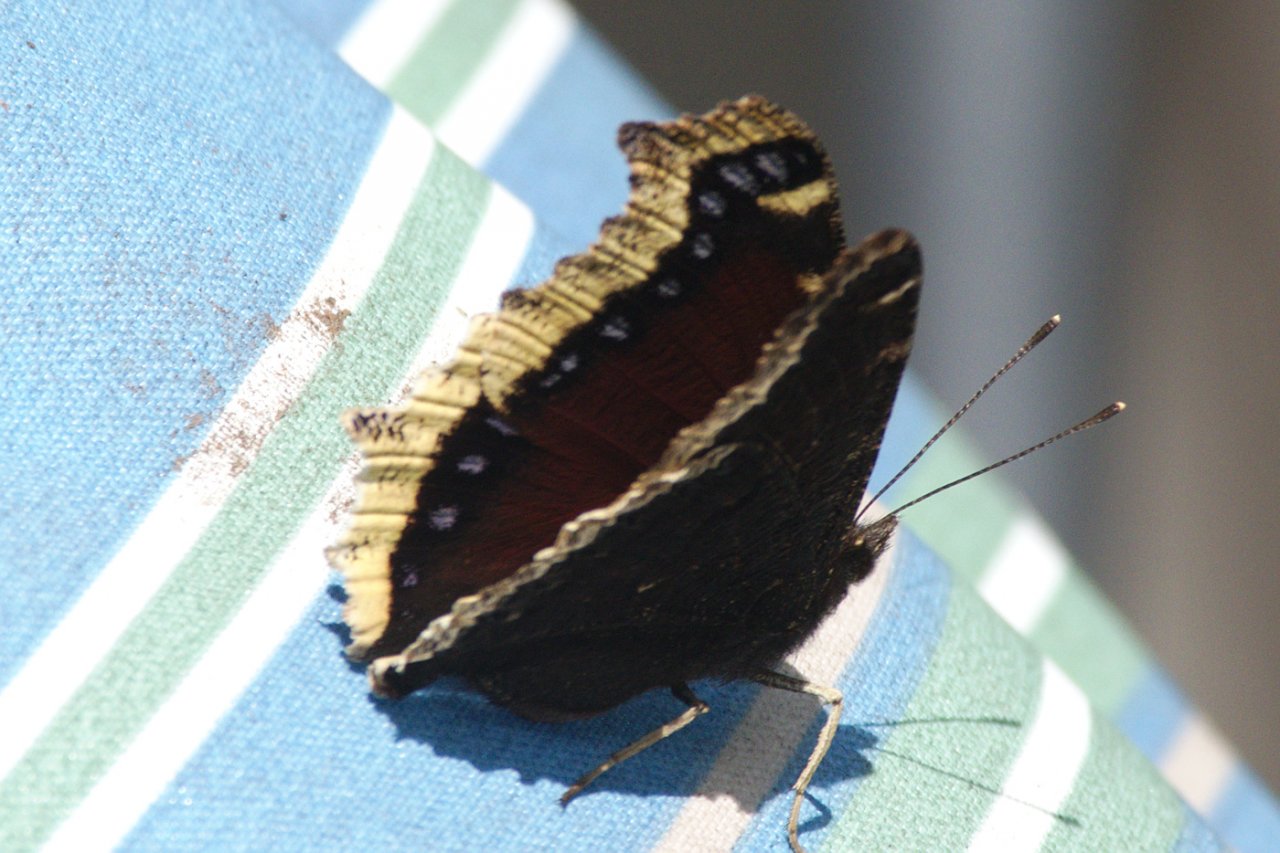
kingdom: Animalia
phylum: Arthropoda
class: Insecta
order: Lepidoptera
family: Nymphalidae
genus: Nymphalis
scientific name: Nymphalis antiopa
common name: Mourning Cloak
